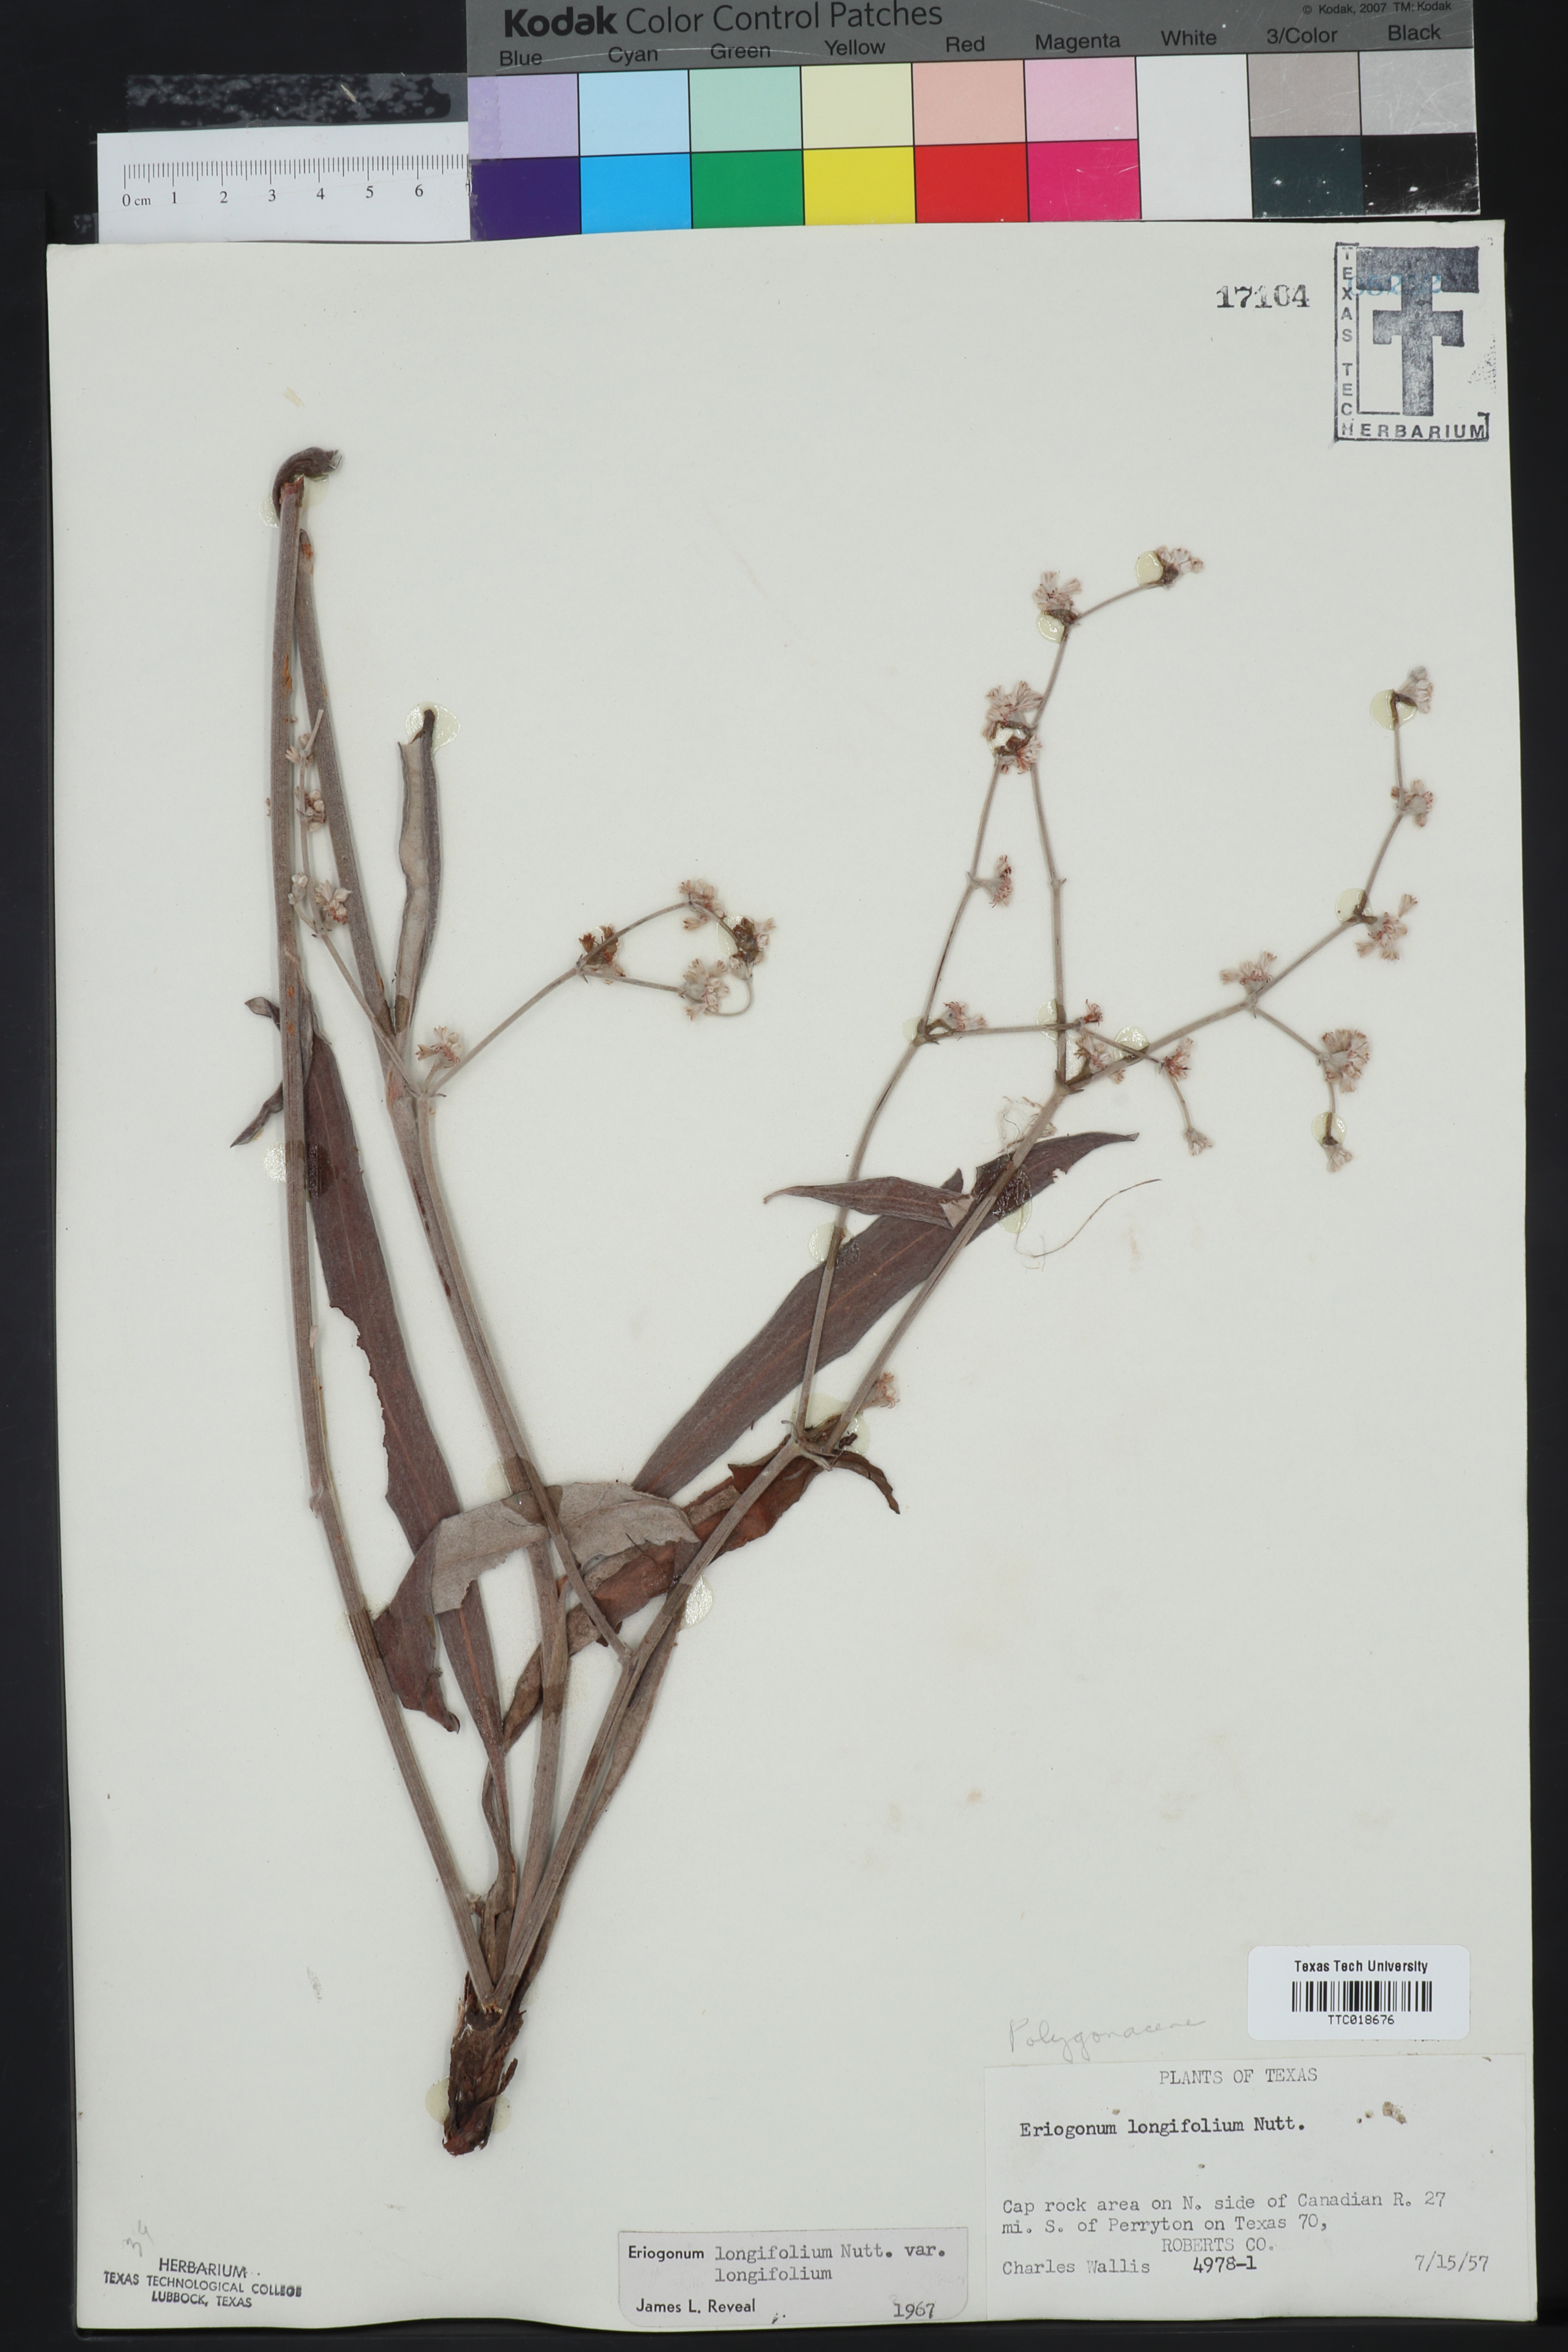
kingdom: Plantae
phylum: Tracheophyta
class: Magnoliopsida
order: Caryophyllales
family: Polygonaceae
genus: Eriogonum
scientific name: Eriogonum longifolium
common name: Longleaf wild buckwheat
